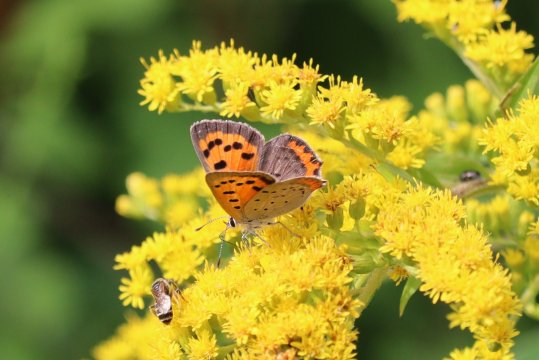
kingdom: Animalia
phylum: Arthropoda
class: Insecta
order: Lepidoptera
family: Lycaenidae
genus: Lycaena
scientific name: Lycaena phlaeas
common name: American Copper
